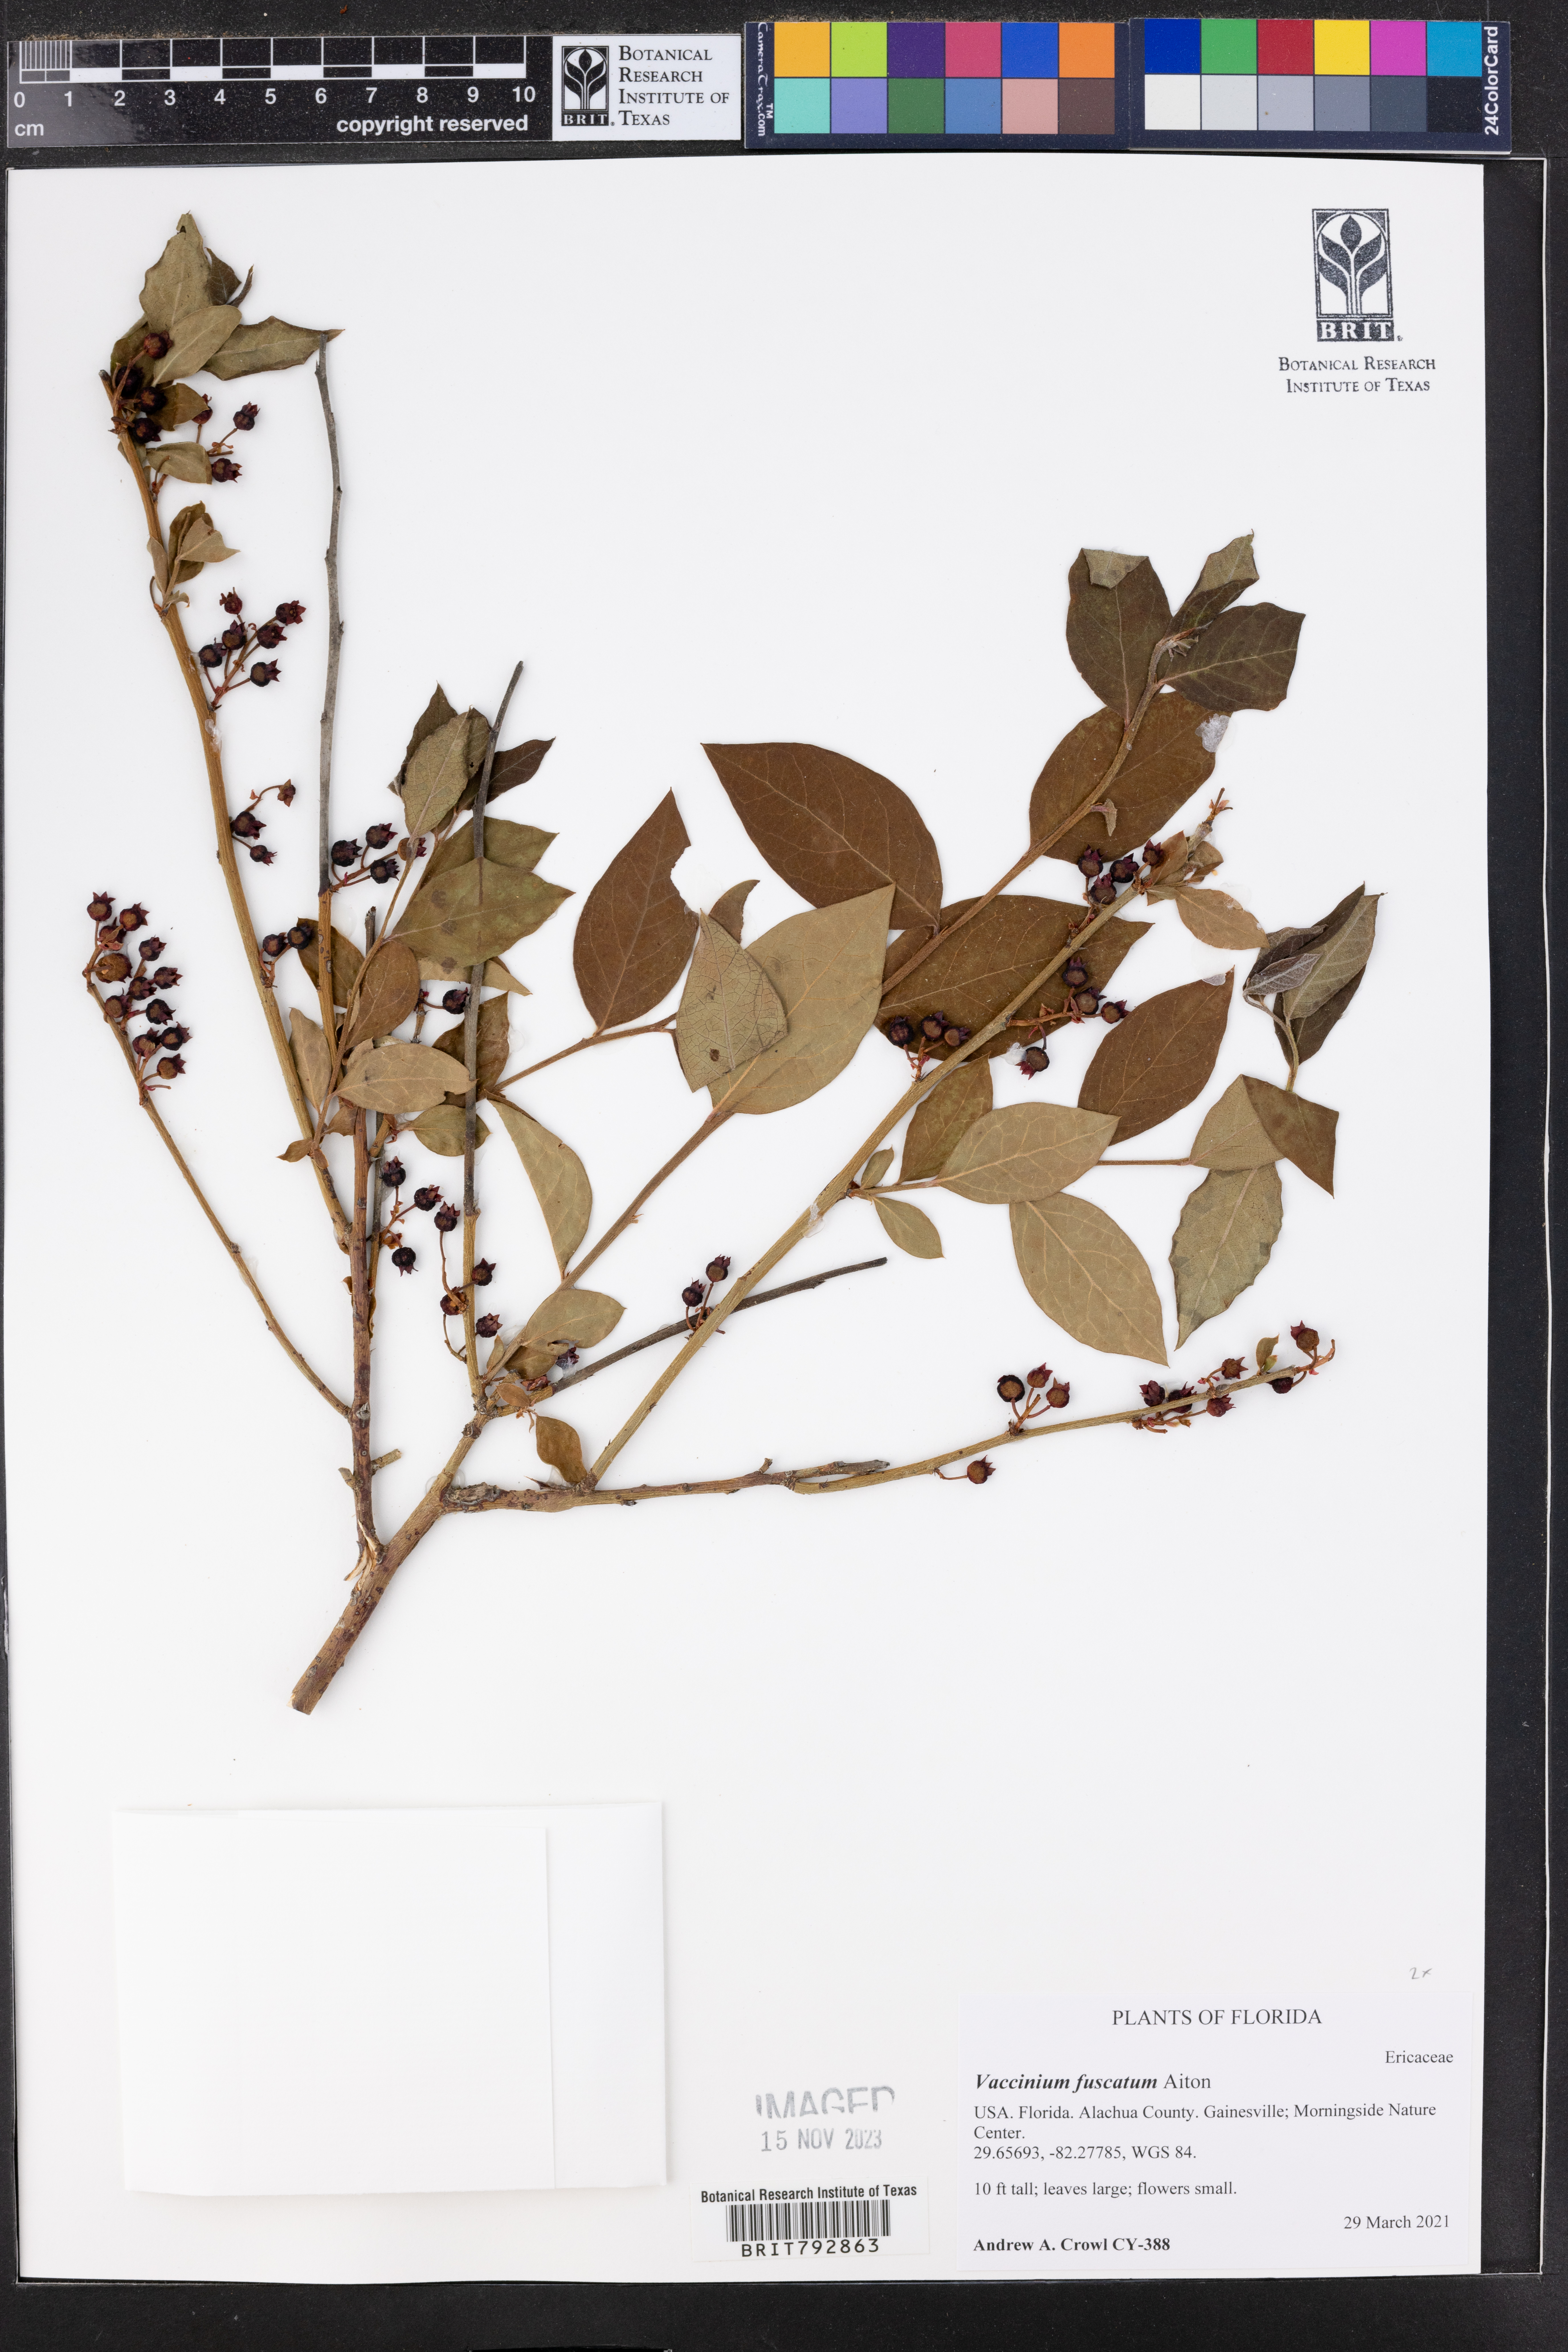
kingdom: Plantae
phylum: Tracheophyta
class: Magnoliopsida
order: Ericales
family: Ericaceae
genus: Vaccinium
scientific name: Vaccinium corymbosum
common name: Blueberry
